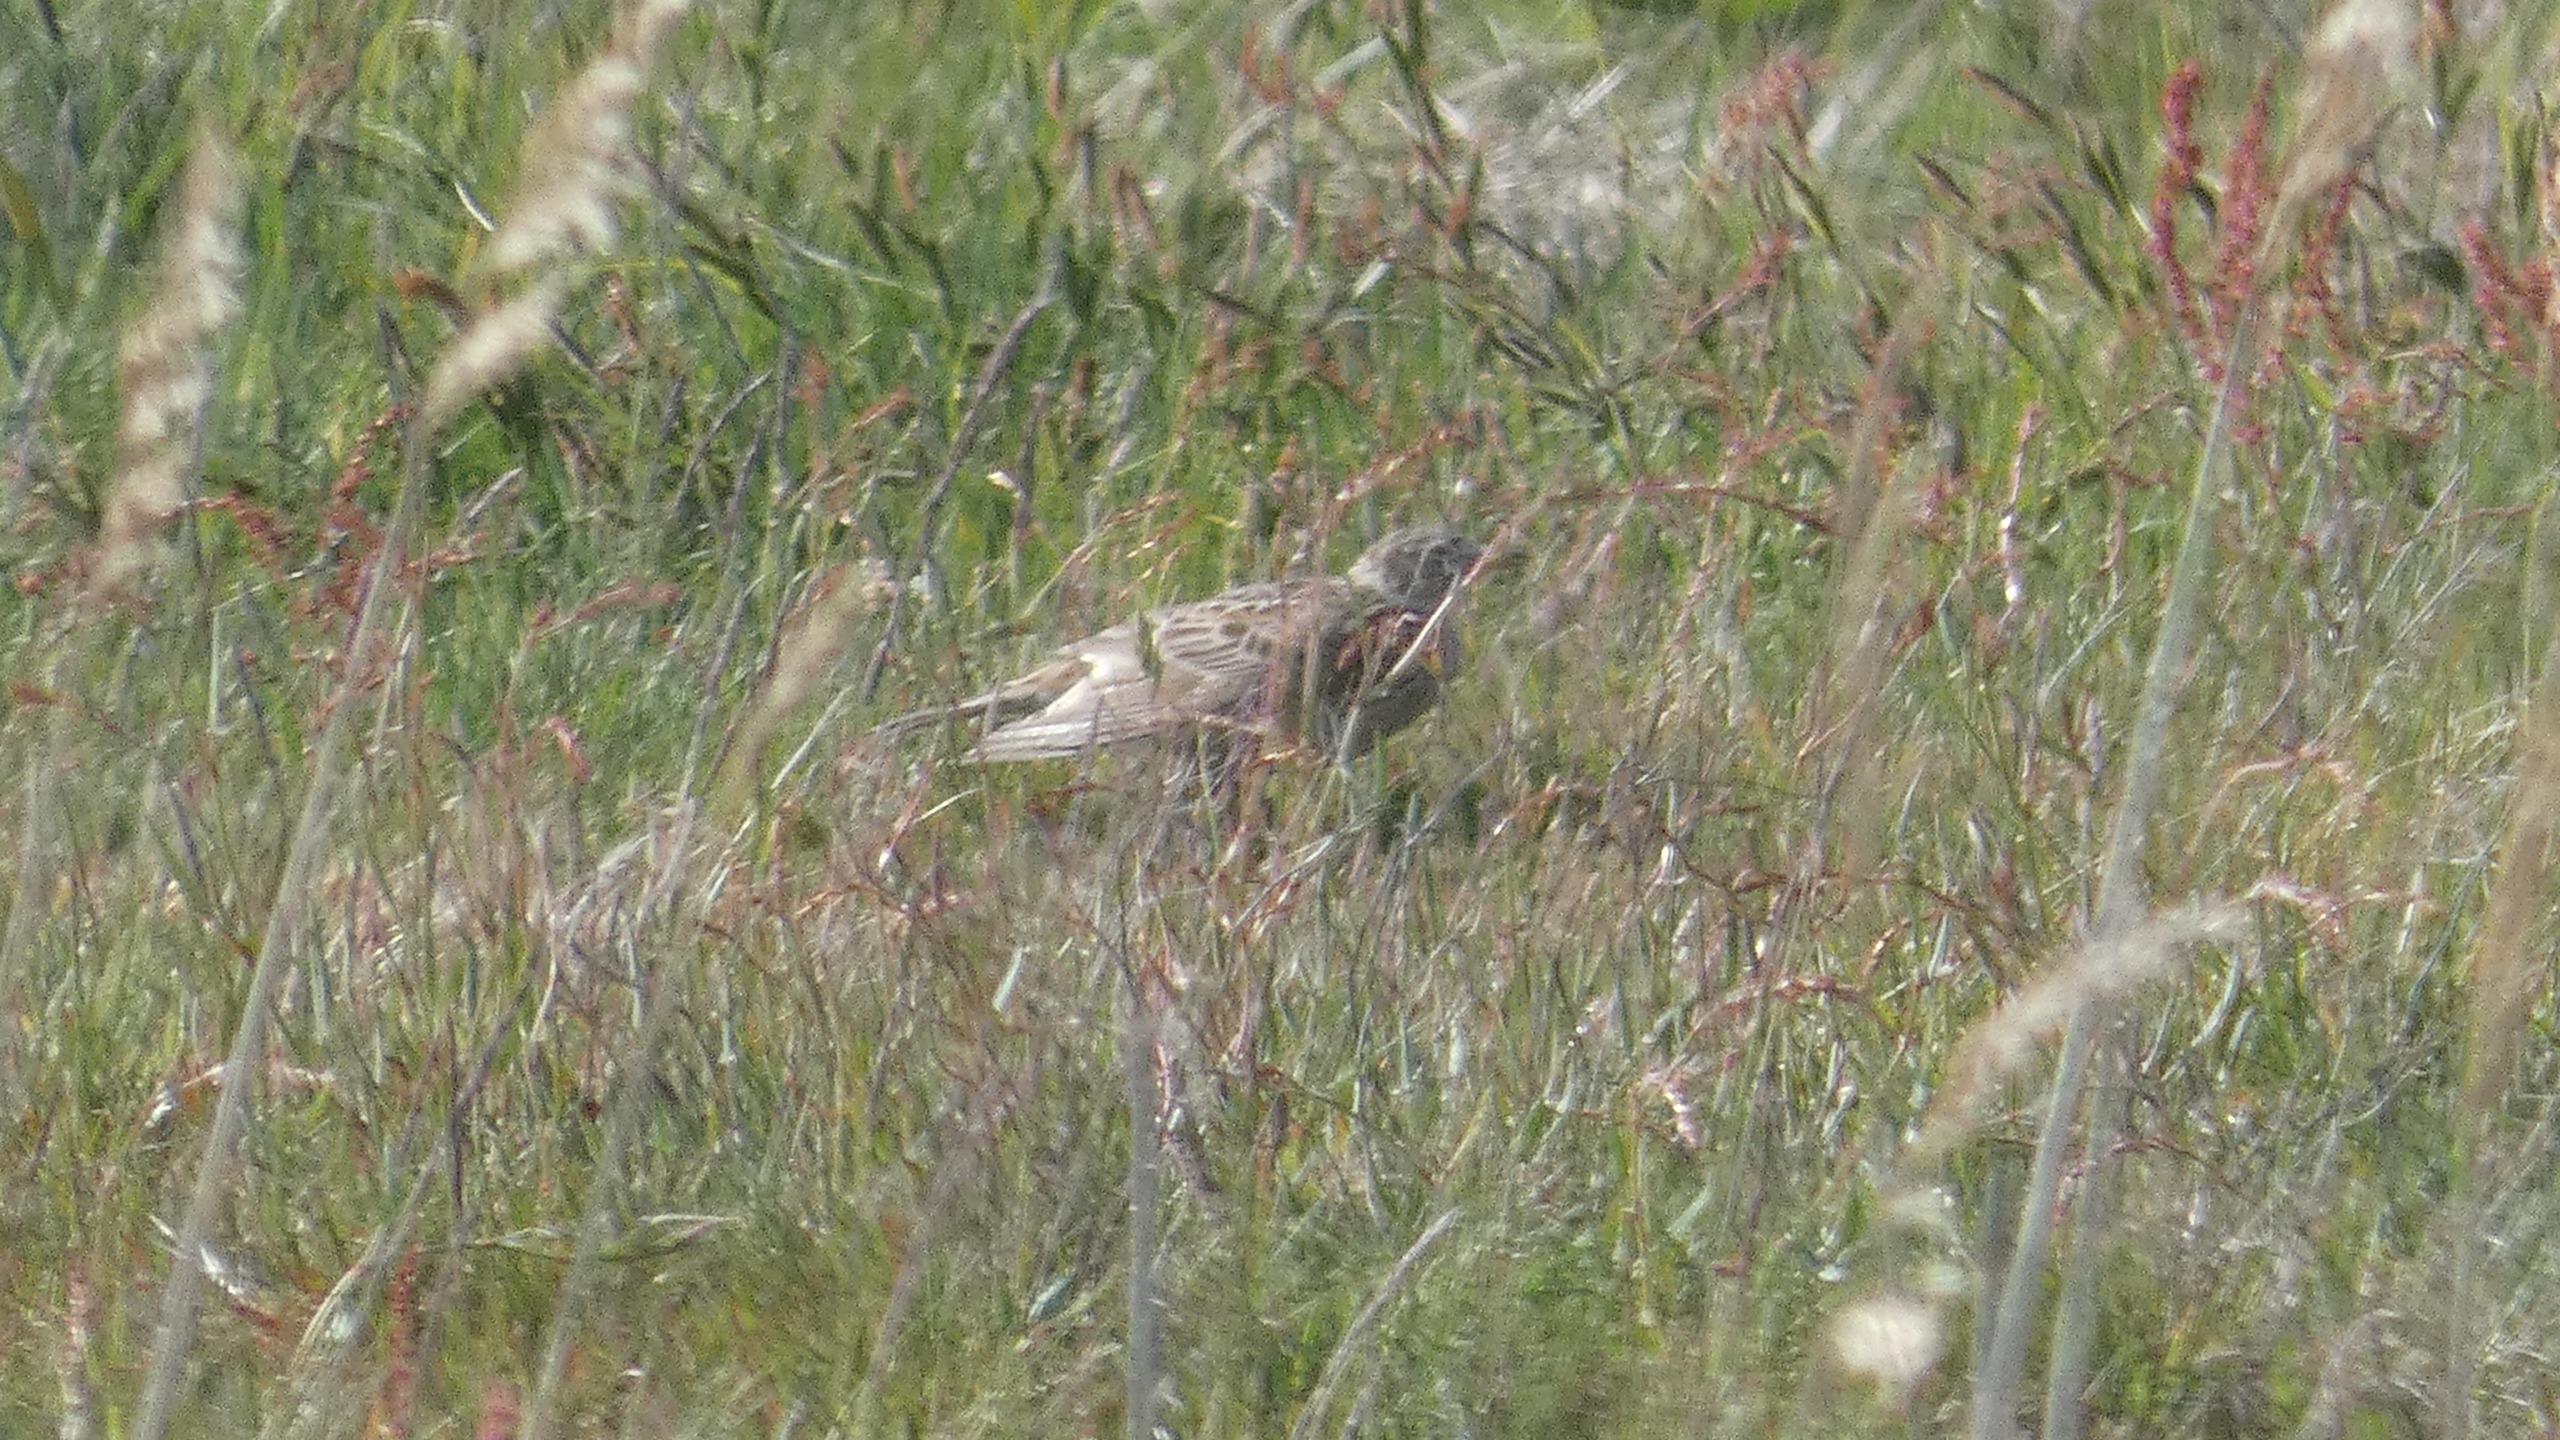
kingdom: Animalia
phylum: Chordata
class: Aves
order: Passeriformes
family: Alaudidae
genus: Alauda
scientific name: Alauda arvensis
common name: Sanglærke
